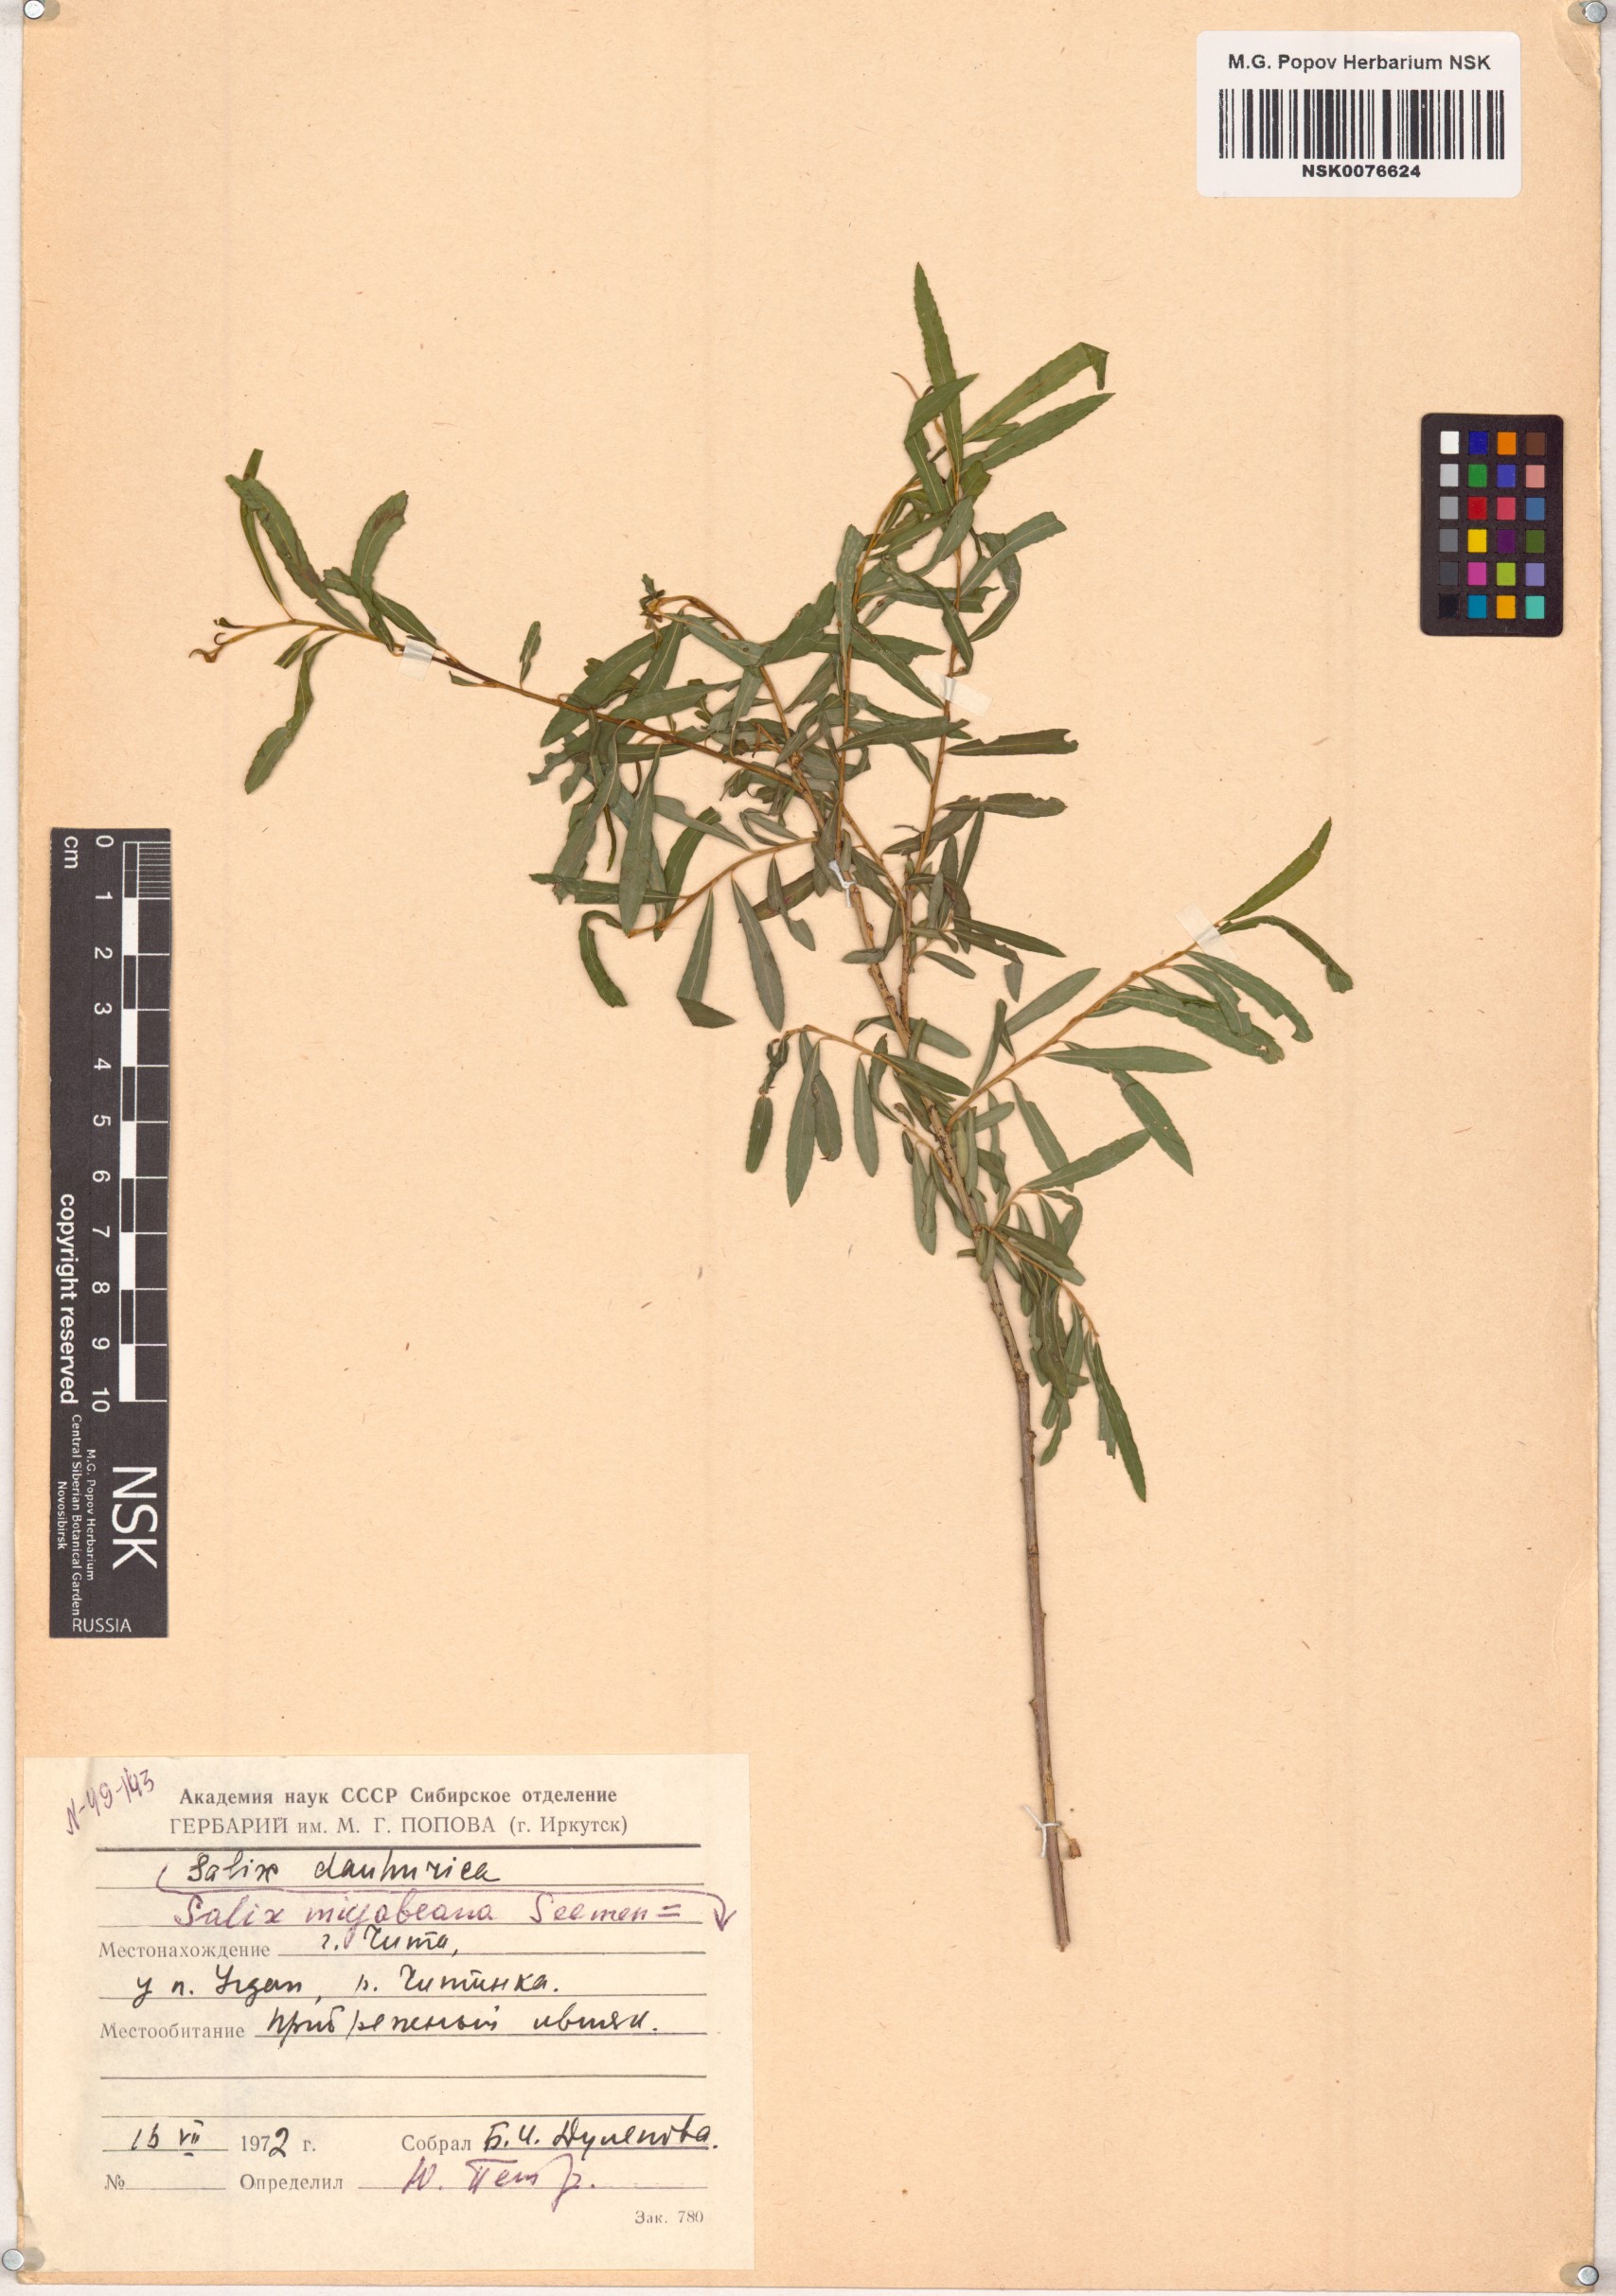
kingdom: Plantae
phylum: Tracheophyta
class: Magnoliopsida
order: Malpighiales
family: Salicaceae
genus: Salix
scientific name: Salix miyabeana
